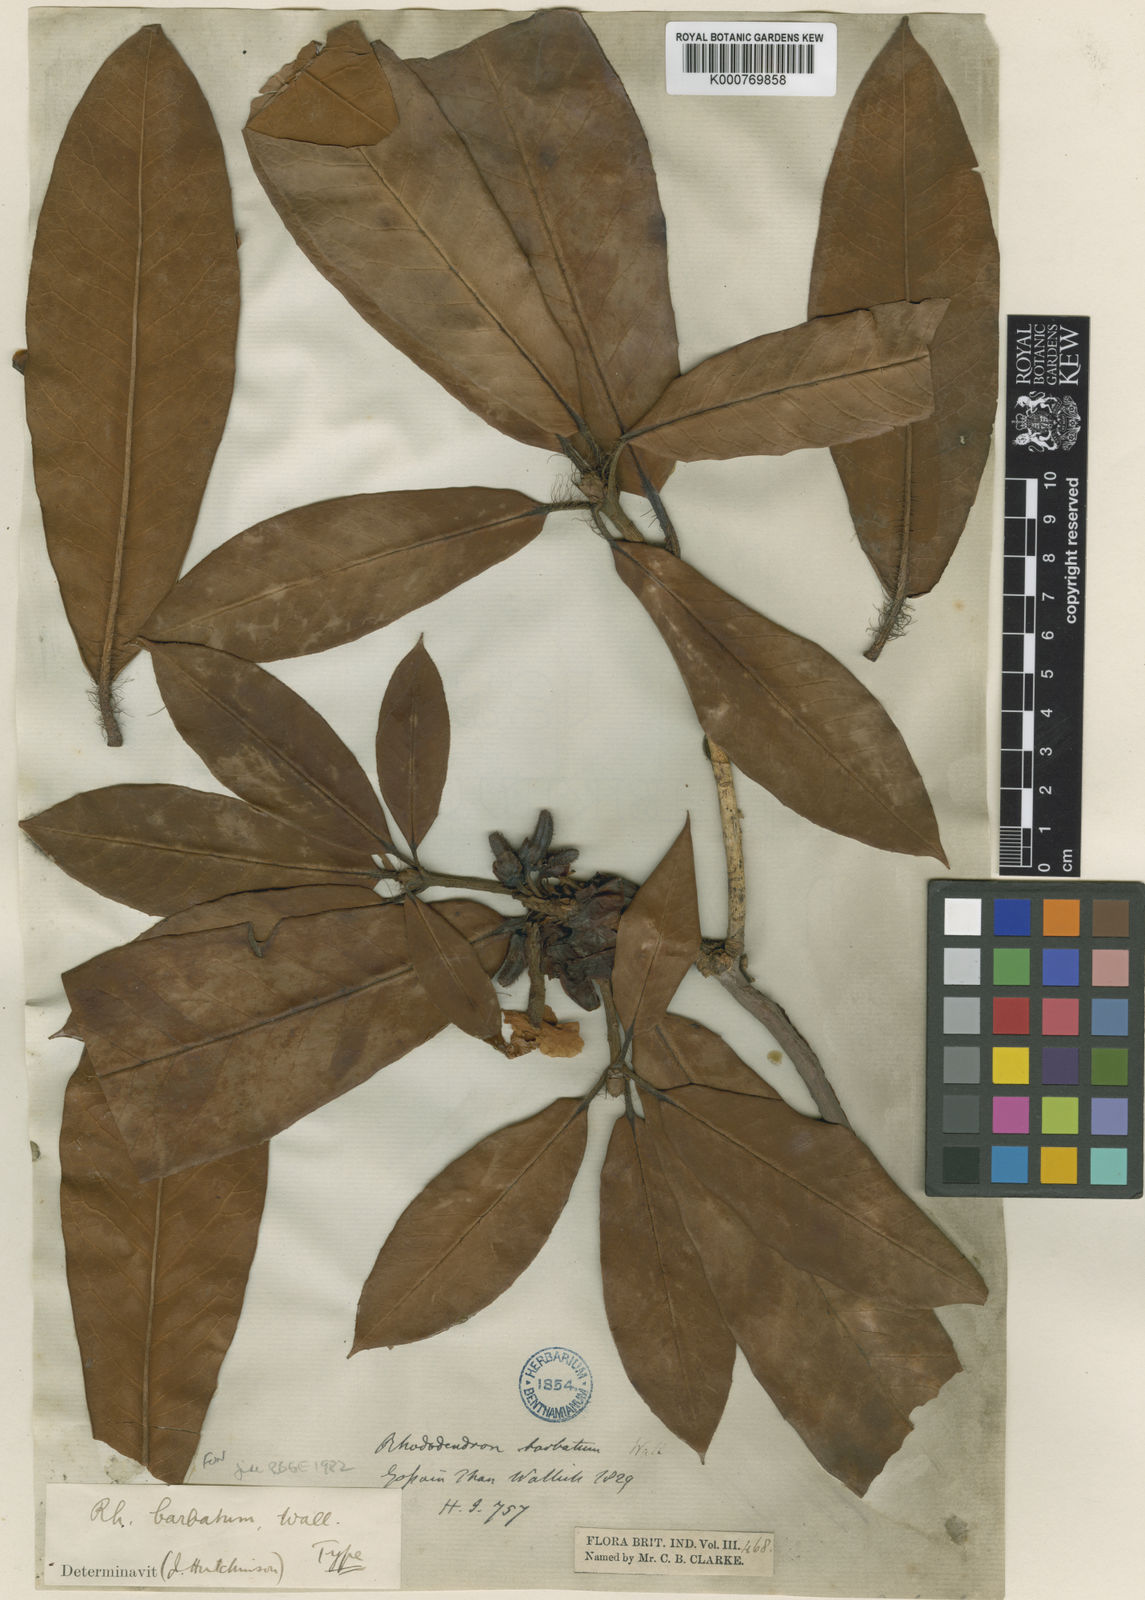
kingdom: Plantae
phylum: Tracheophyta
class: Magnoliopsida
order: Ericales
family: Ericaceae
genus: Rhododendron
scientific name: Rhododendron
